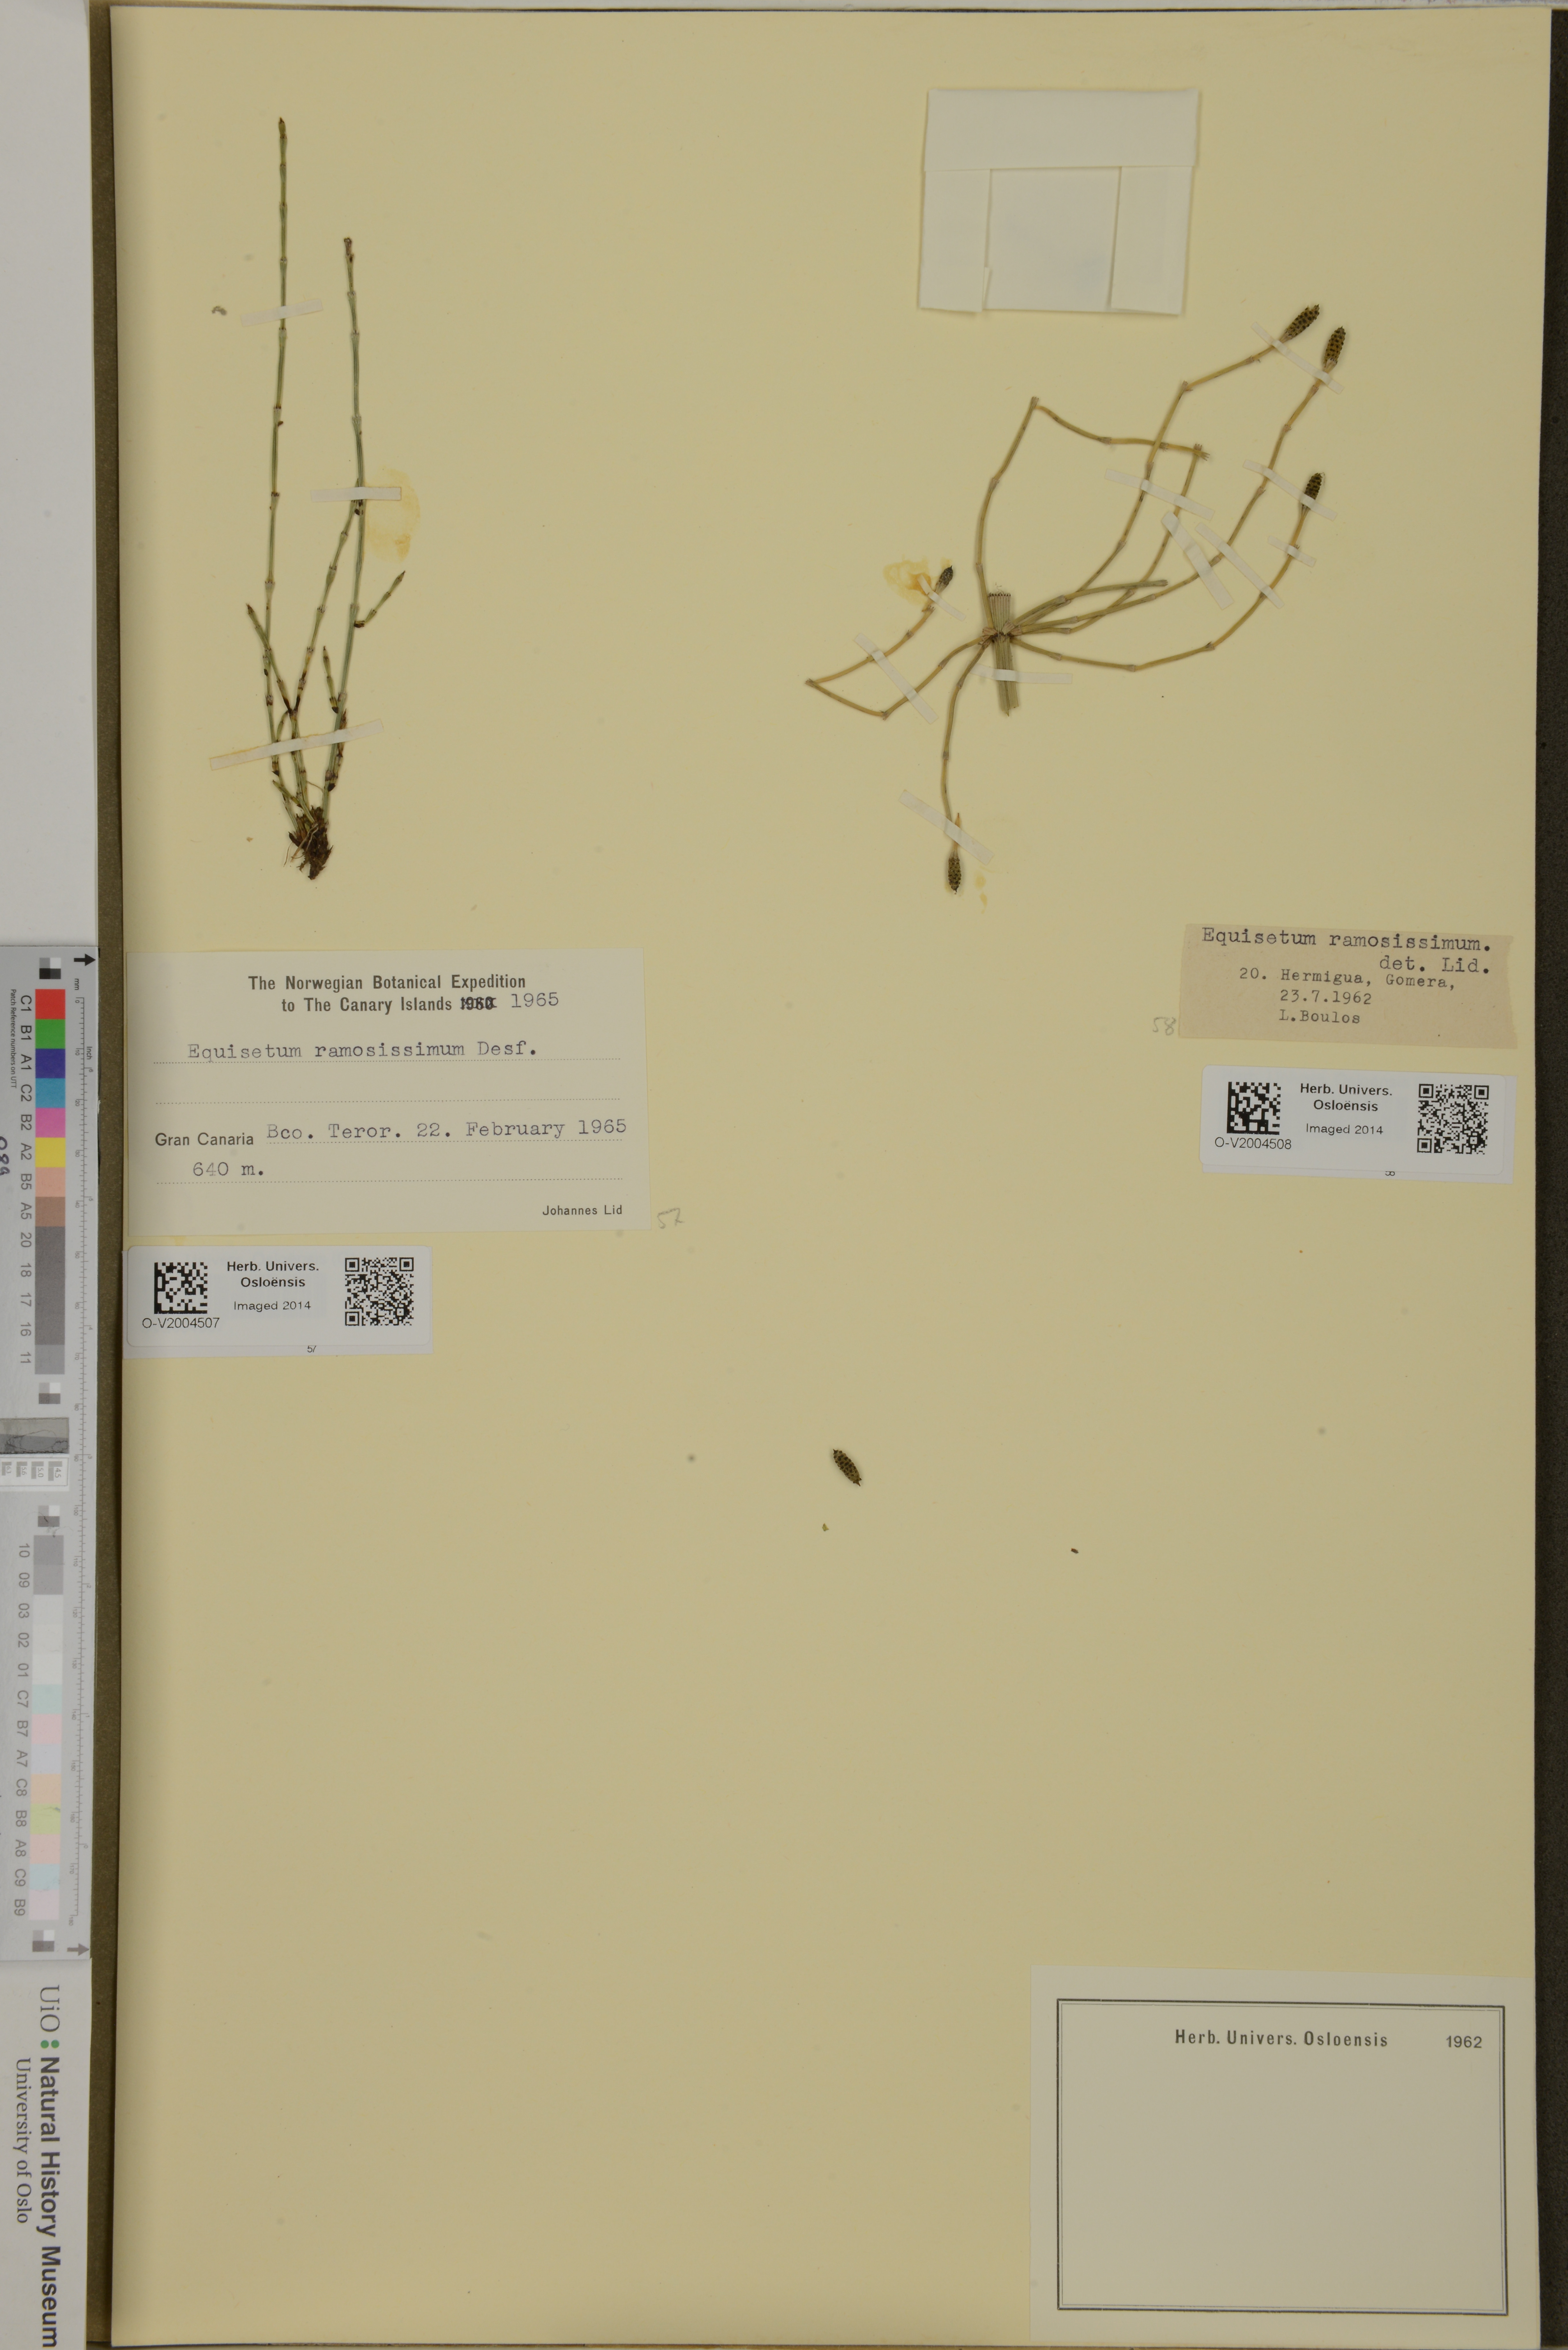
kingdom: Plantae
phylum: Tracheophyta
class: Polypodiopsida
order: Equisetales
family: Equisetaceae
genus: Equisetum
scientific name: Equisetum ramosissimum
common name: Branched horsetail
